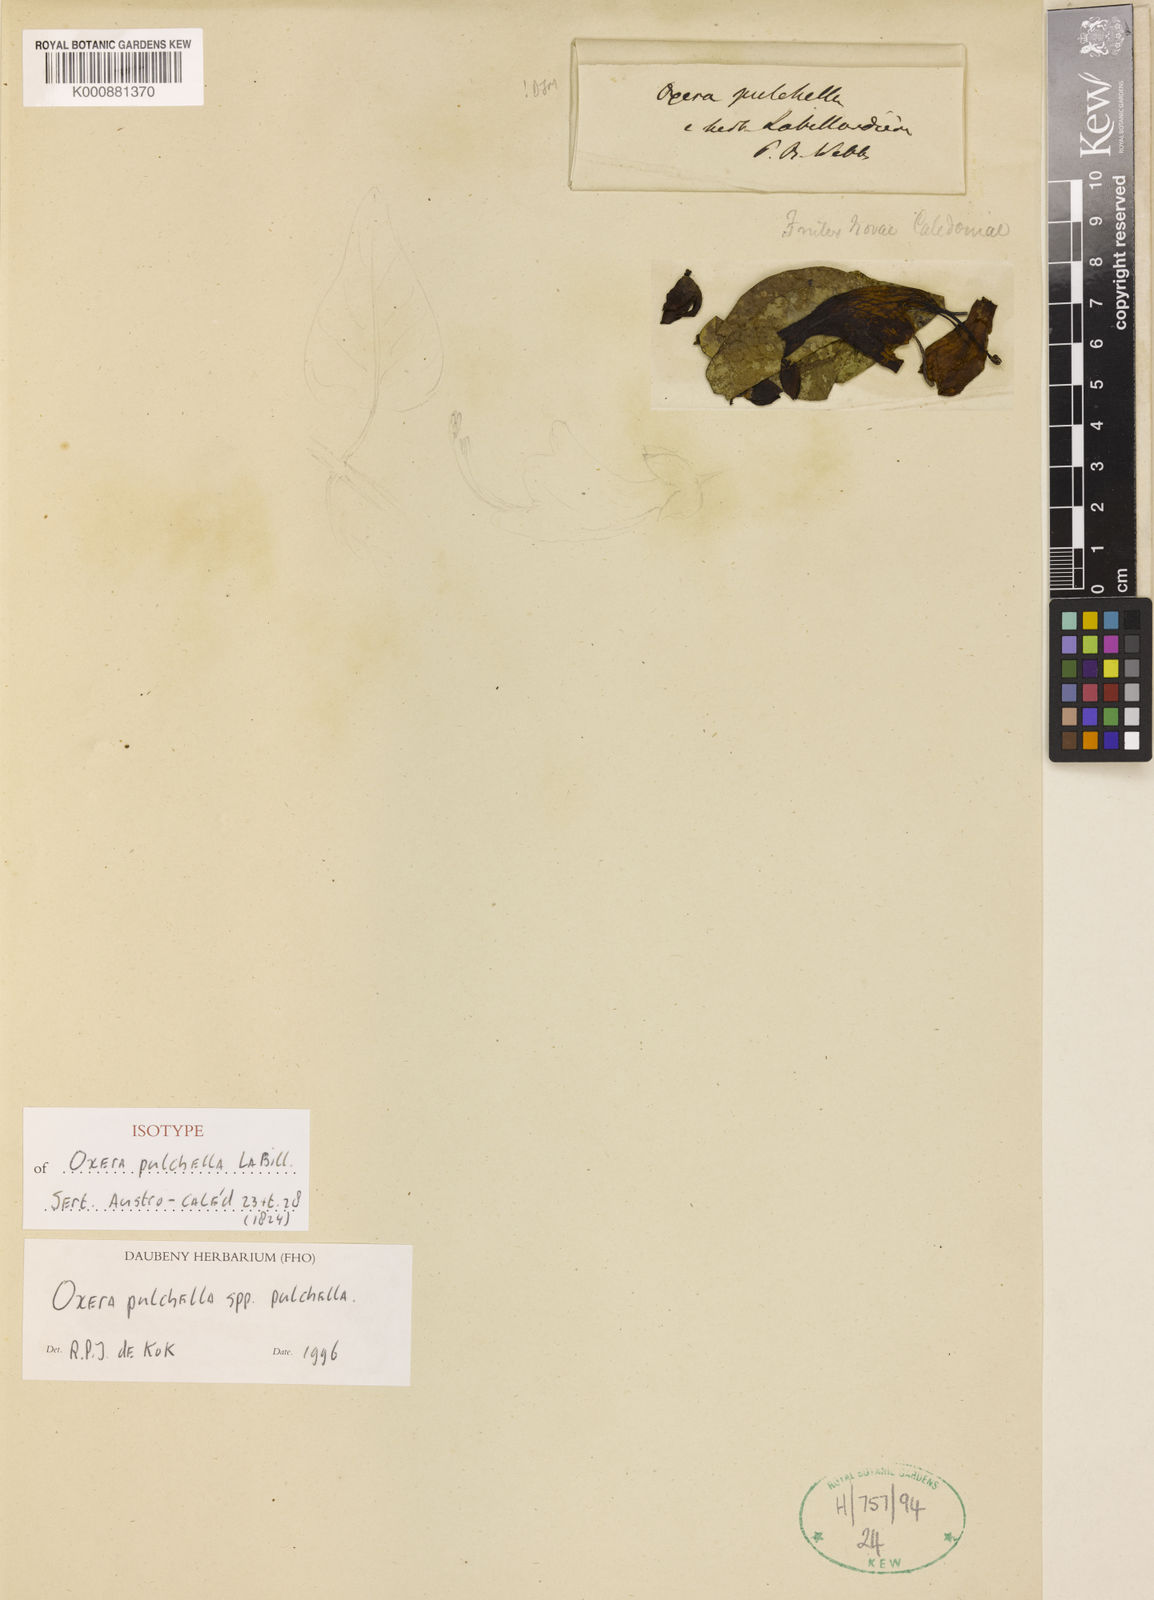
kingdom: Plantae
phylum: Tracheophyta
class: Magnoliopsida
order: Lamiales
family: Lamiaceae
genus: Oxera
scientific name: Oxera pulchella
